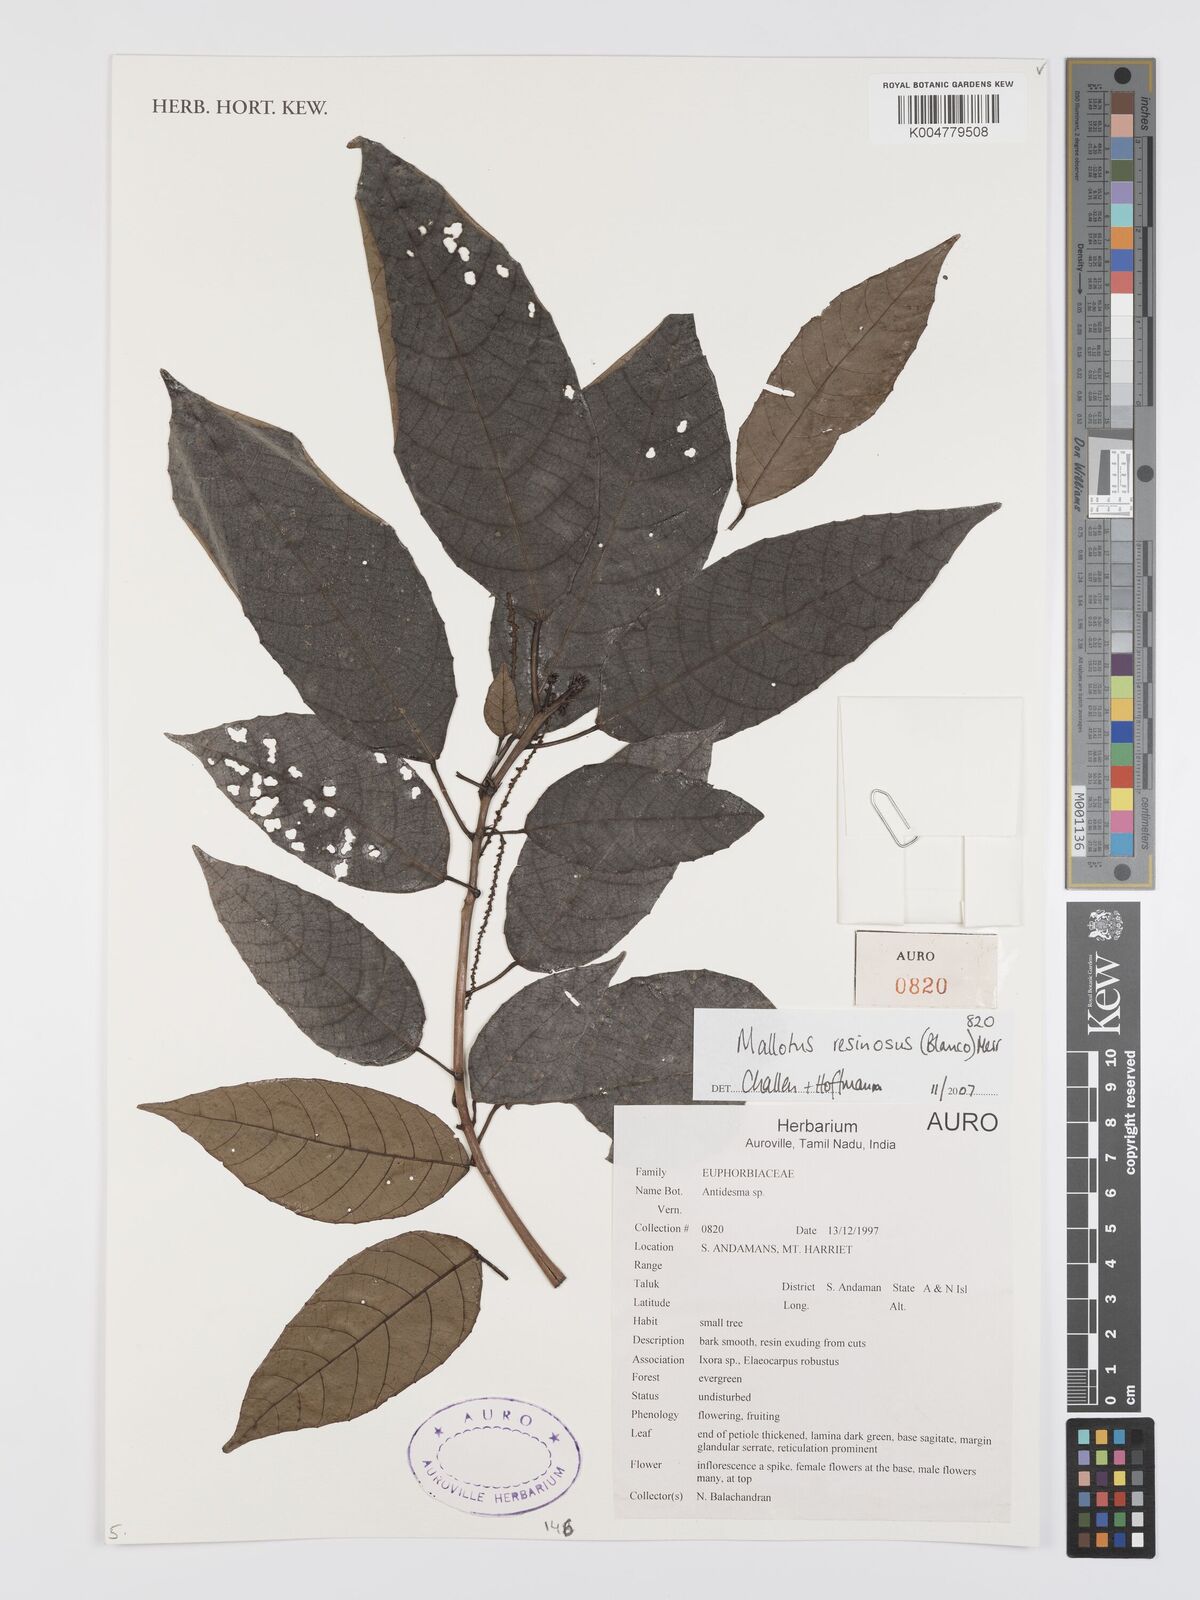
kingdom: Plantae
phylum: Tracheophyta
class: Magnoliopsida
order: Malpighiales
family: Euphorbiaceae
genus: Mallotus
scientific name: Mallotus resinosus
